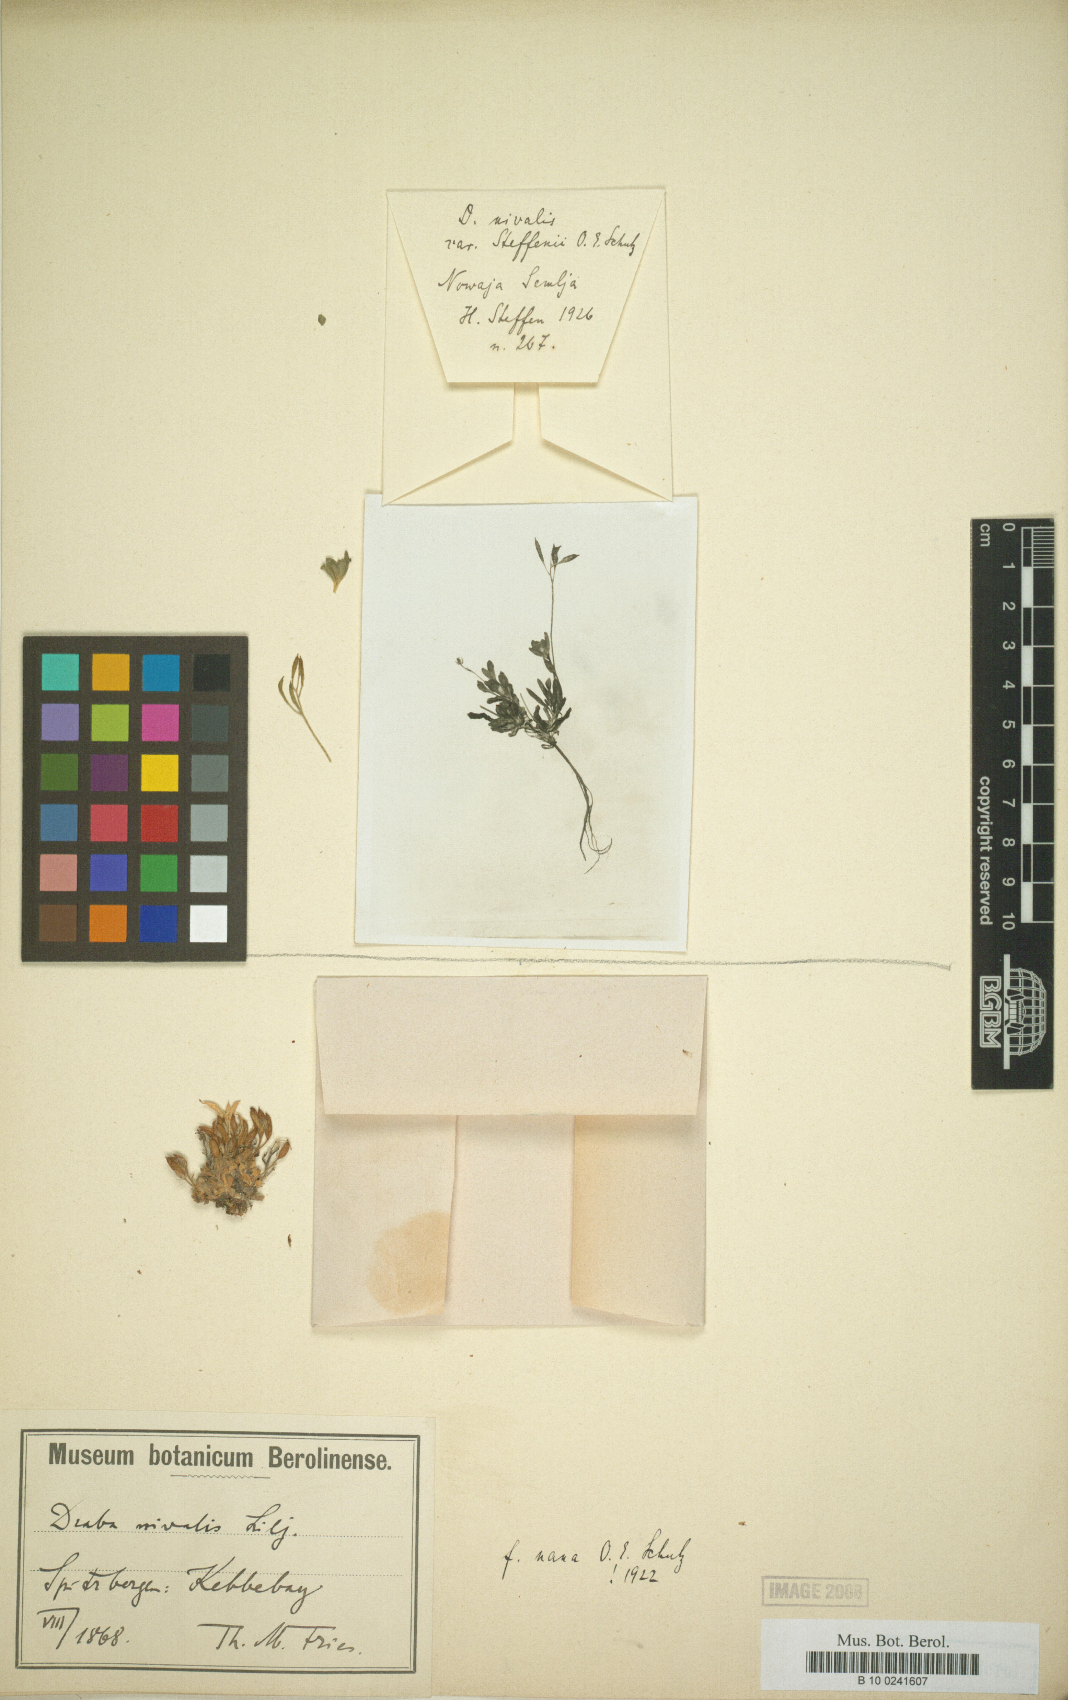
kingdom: Plantae
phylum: Tracheophyta
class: Magnoliopsida
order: Brassicales
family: Brassicaceae
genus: Draba
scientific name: Draba nivalis
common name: Snow draba
